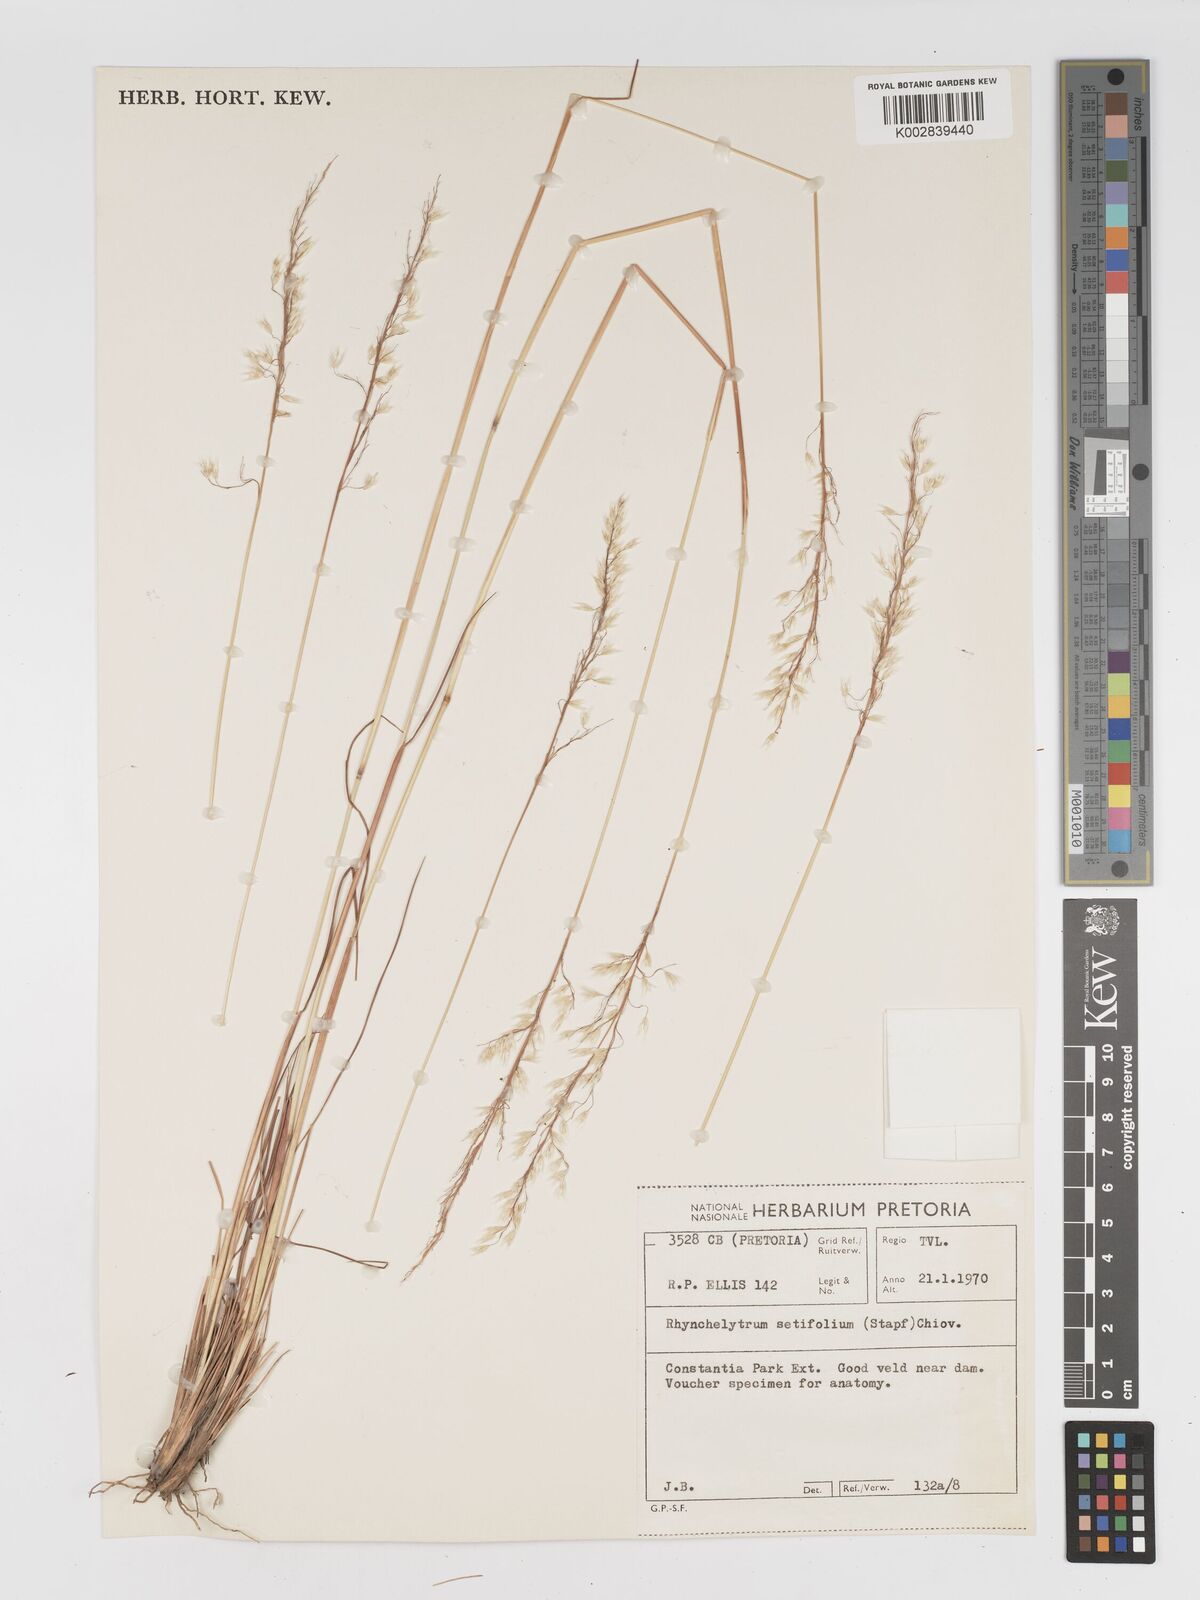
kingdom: Plantae
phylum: Tracheophyta
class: Liliopsida
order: Poales
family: Poaceae
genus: Melinis
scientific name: Melinis nerviglumis
